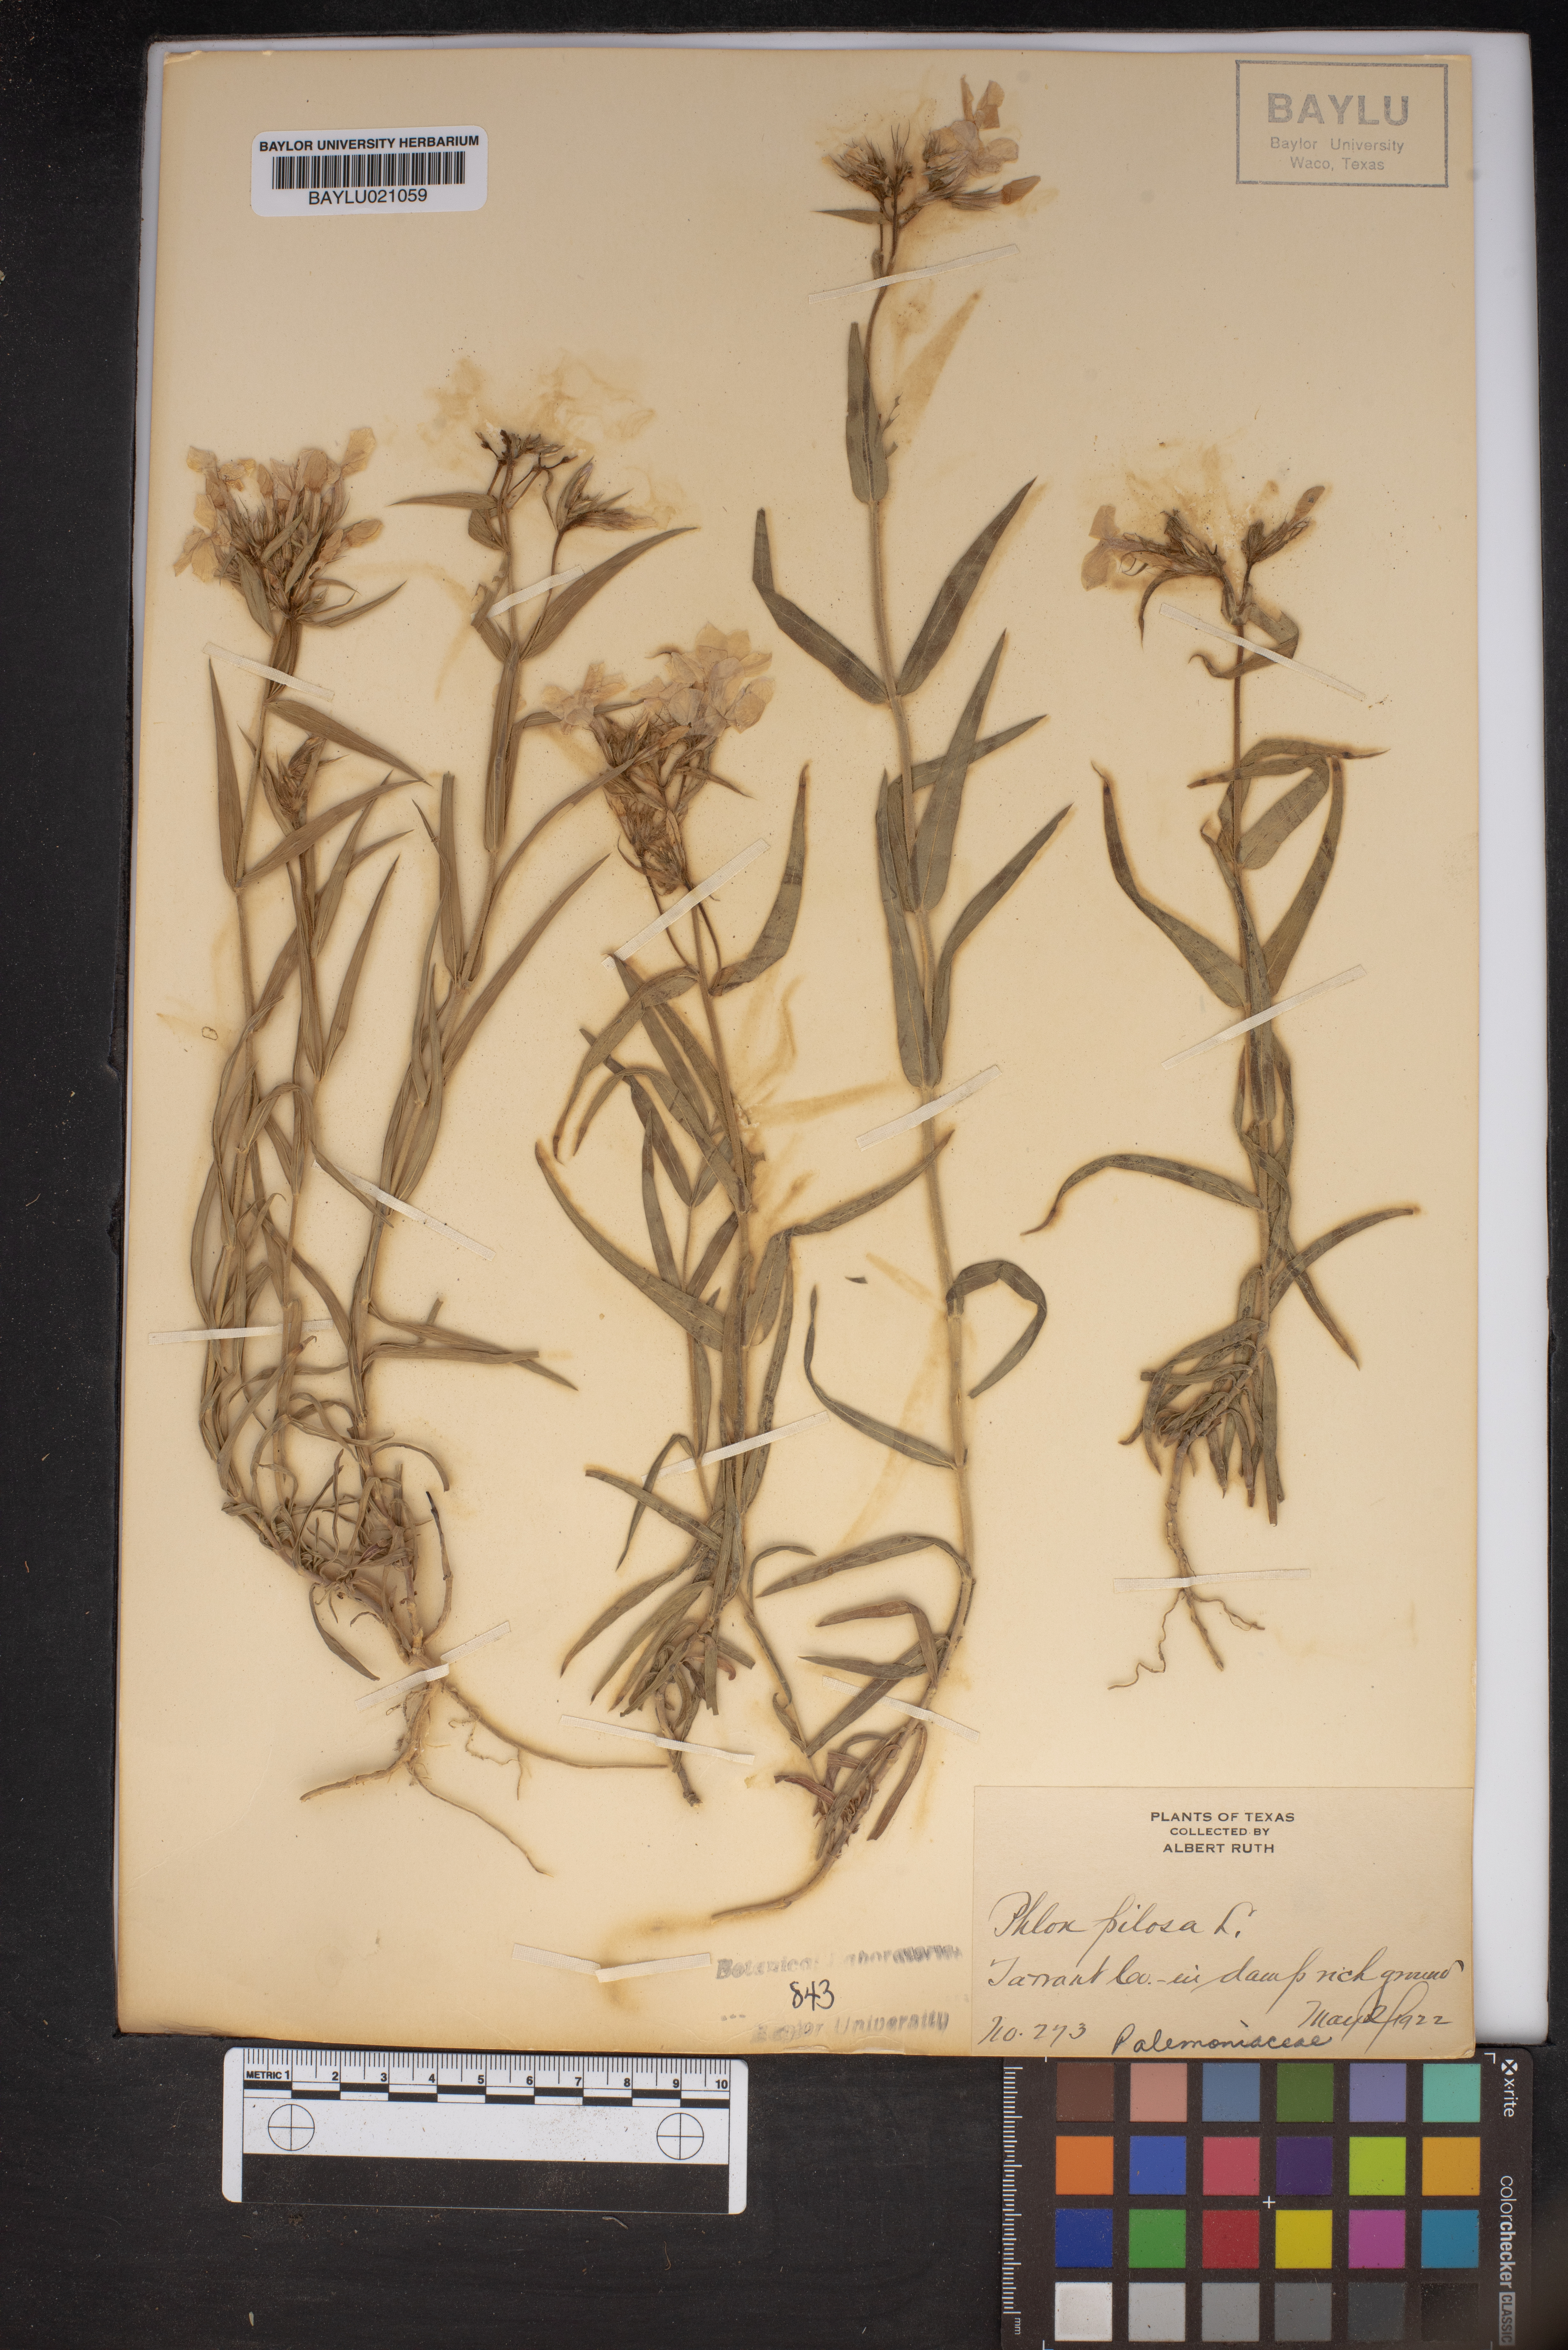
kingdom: Plantae
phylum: Tracheophyta
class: Magnoliopsida
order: Ericales
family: Polemoniaceae
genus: Phlox
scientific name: Phlox pilosa
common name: Prairie phlox
